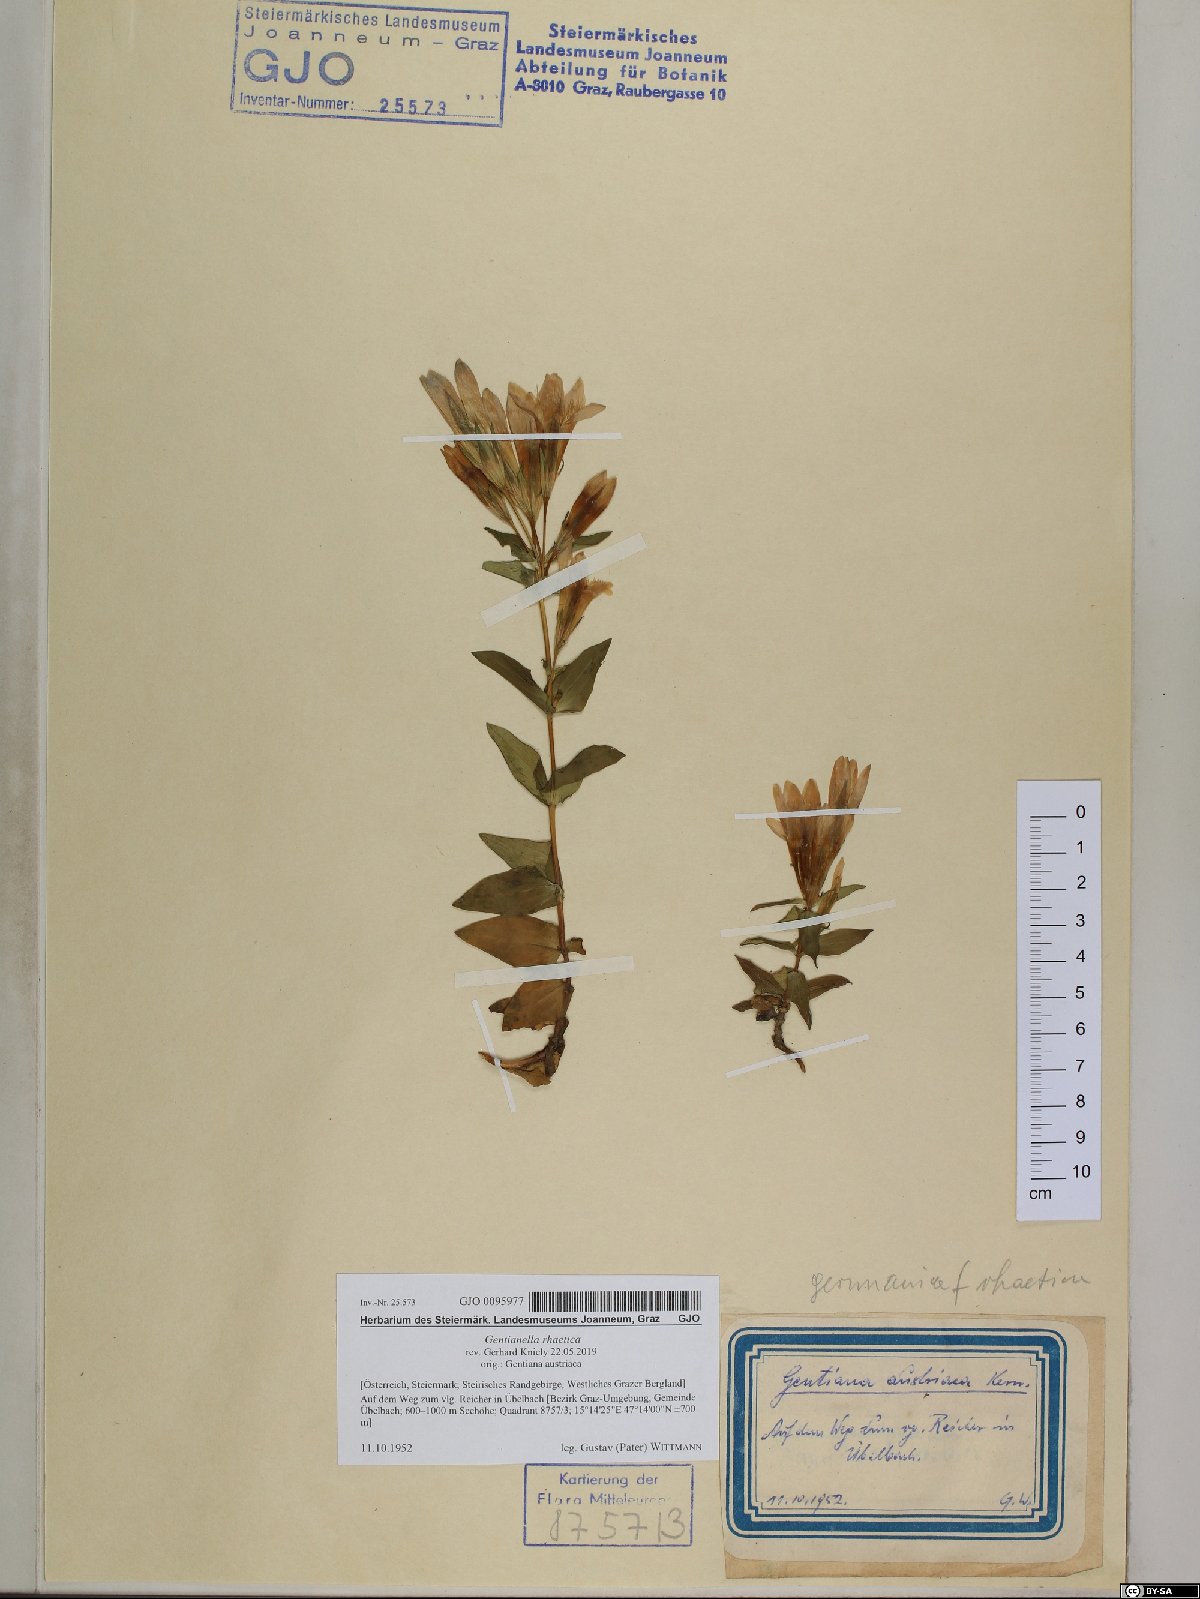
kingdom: Plantae
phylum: Tracheophyta
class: Magnoliopsida
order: Gentianales
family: Gentianaceae
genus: Gentianella
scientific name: Gentianella rhaetica
